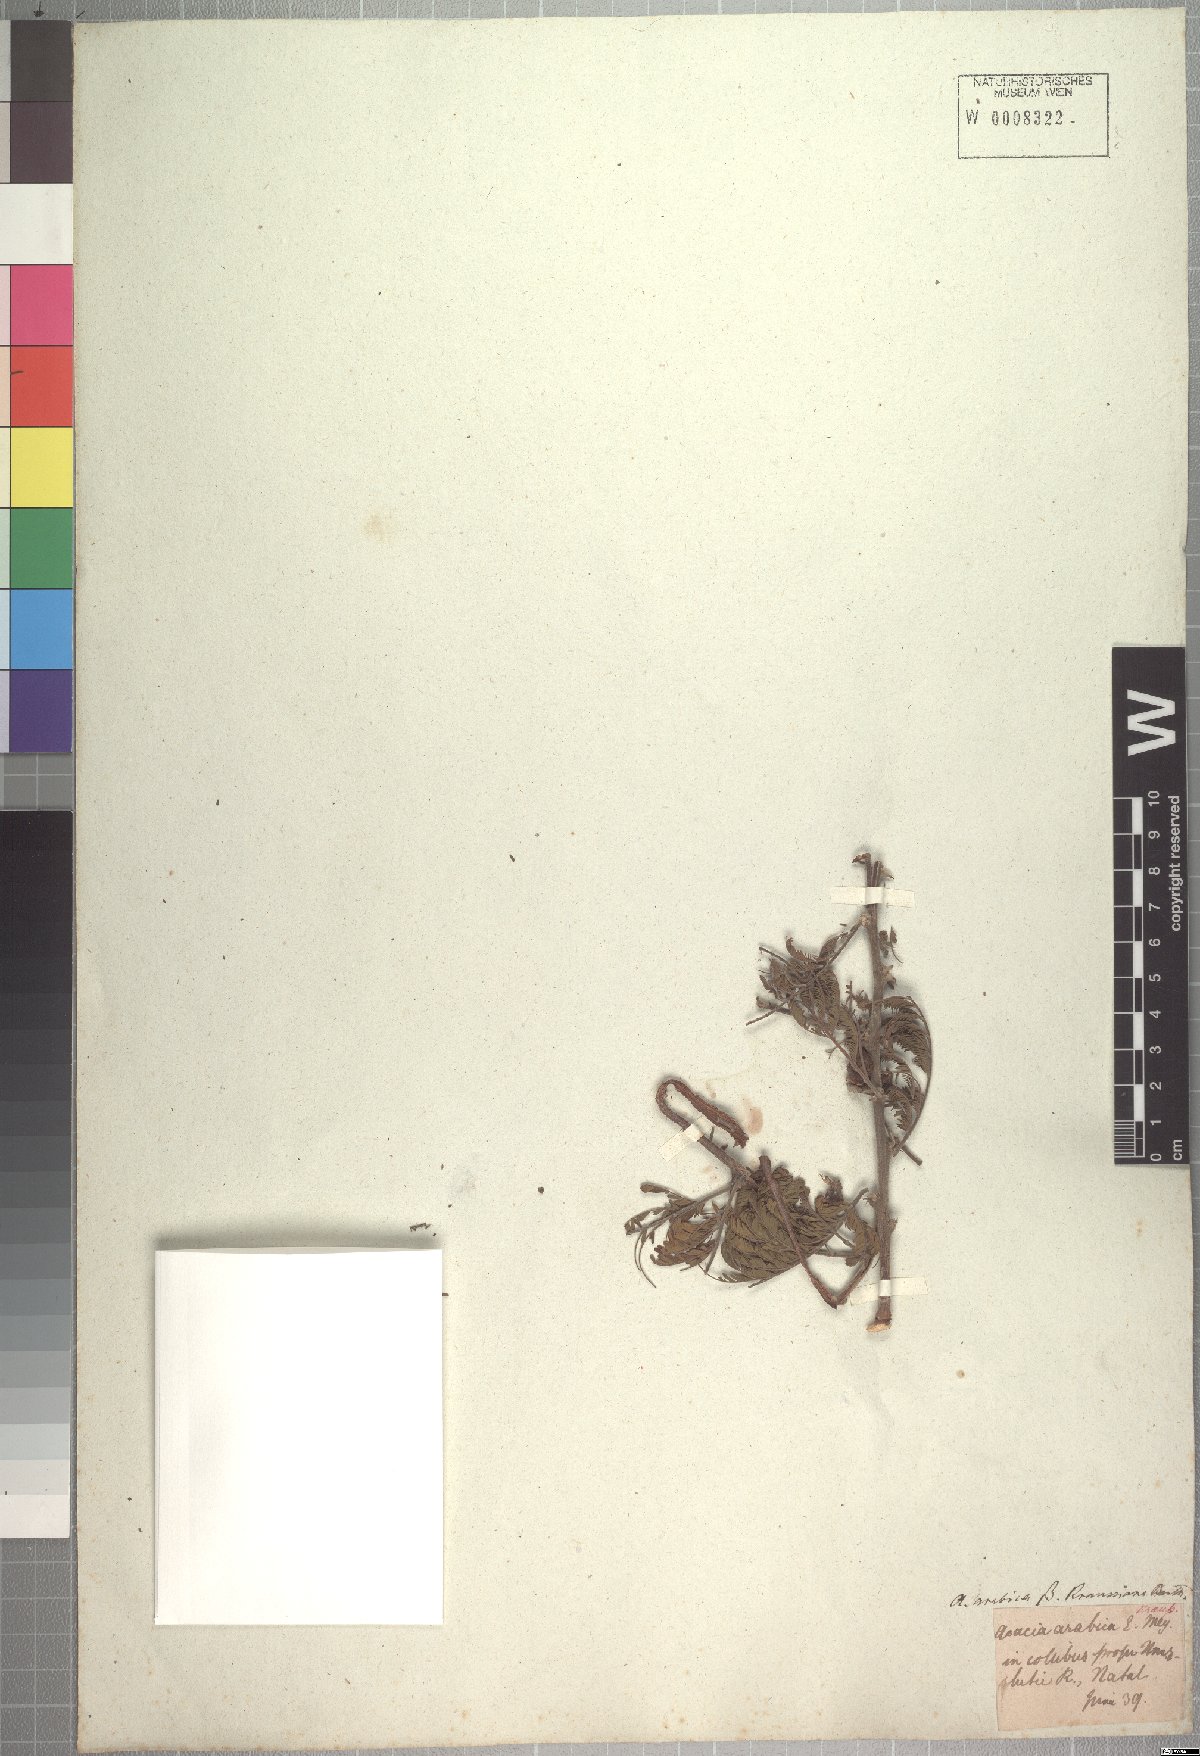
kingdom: Plantae
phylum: Tracheophyta
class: Magnoliopsida
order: Fabales
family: Fabaceae
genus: Vachellia
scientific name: Vachellia nilotica
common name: Arabic gumtree
